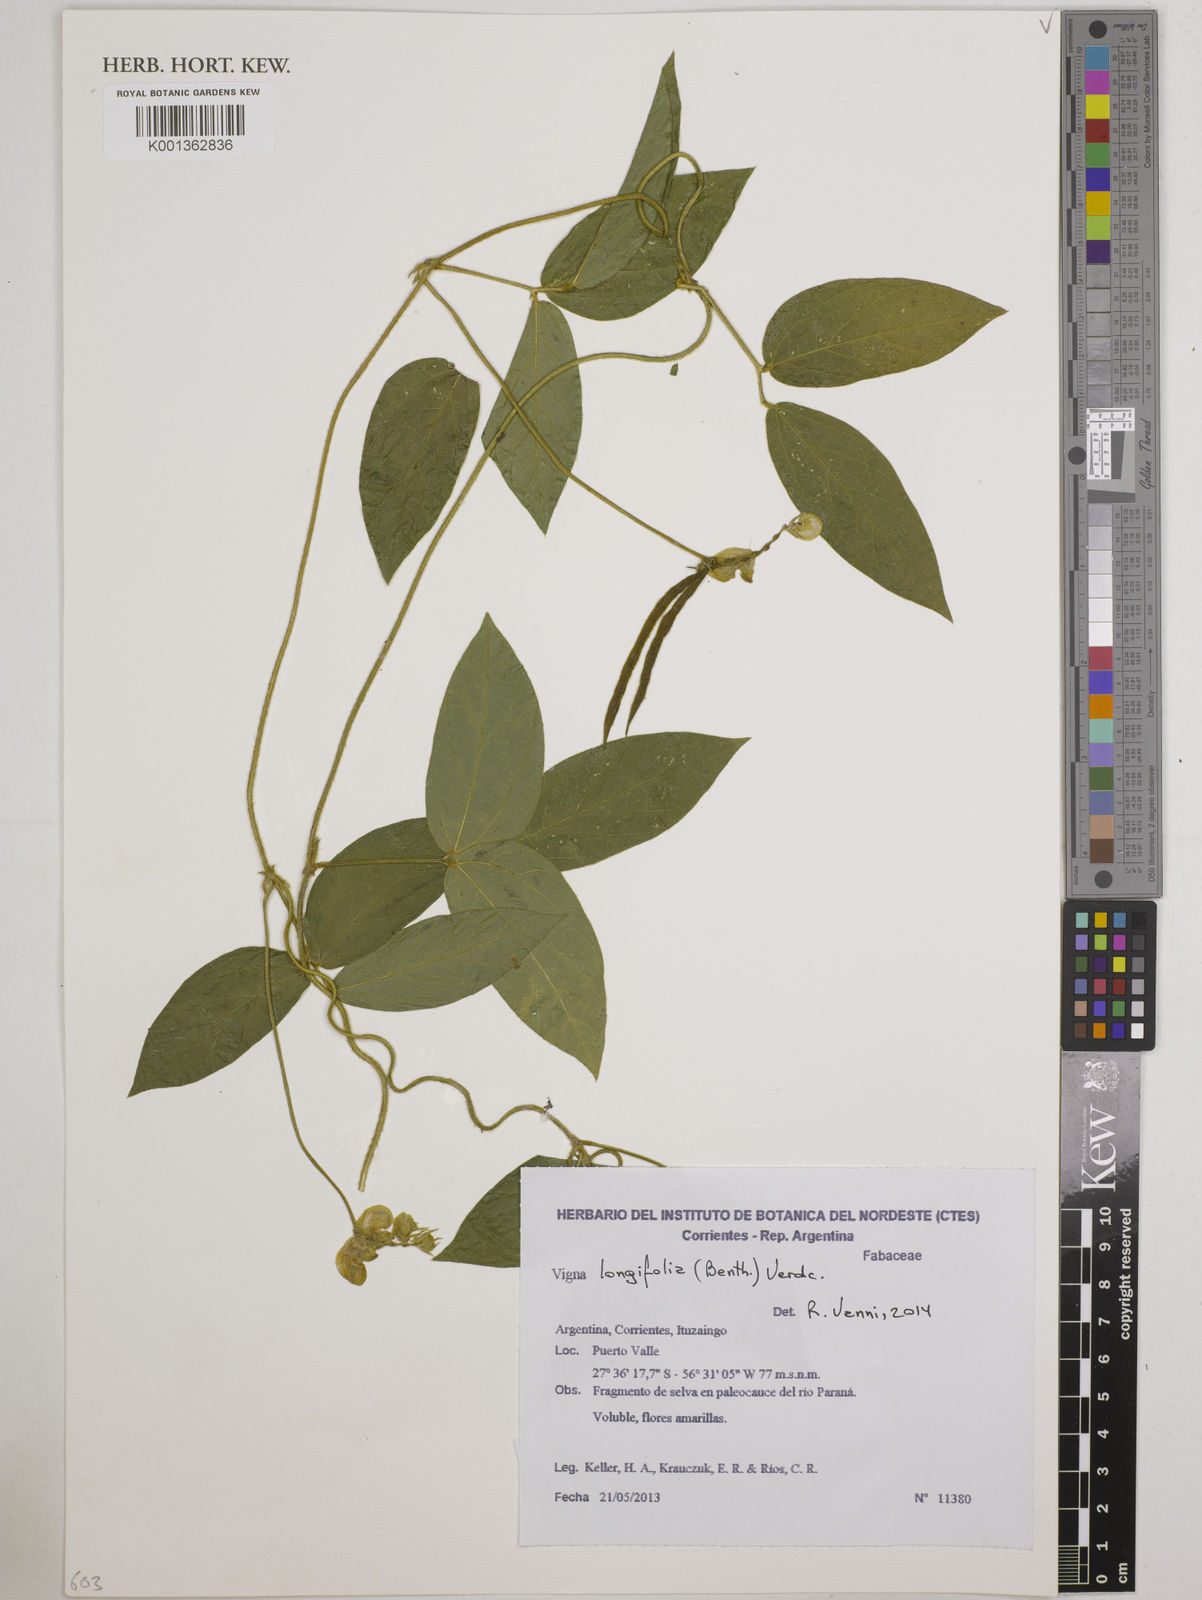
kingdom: Plantae
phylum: Tracheophyta
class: Magnoliopsida
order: Fabales
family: Fabaceae
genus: Vigna
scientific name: Vigna longifolia
